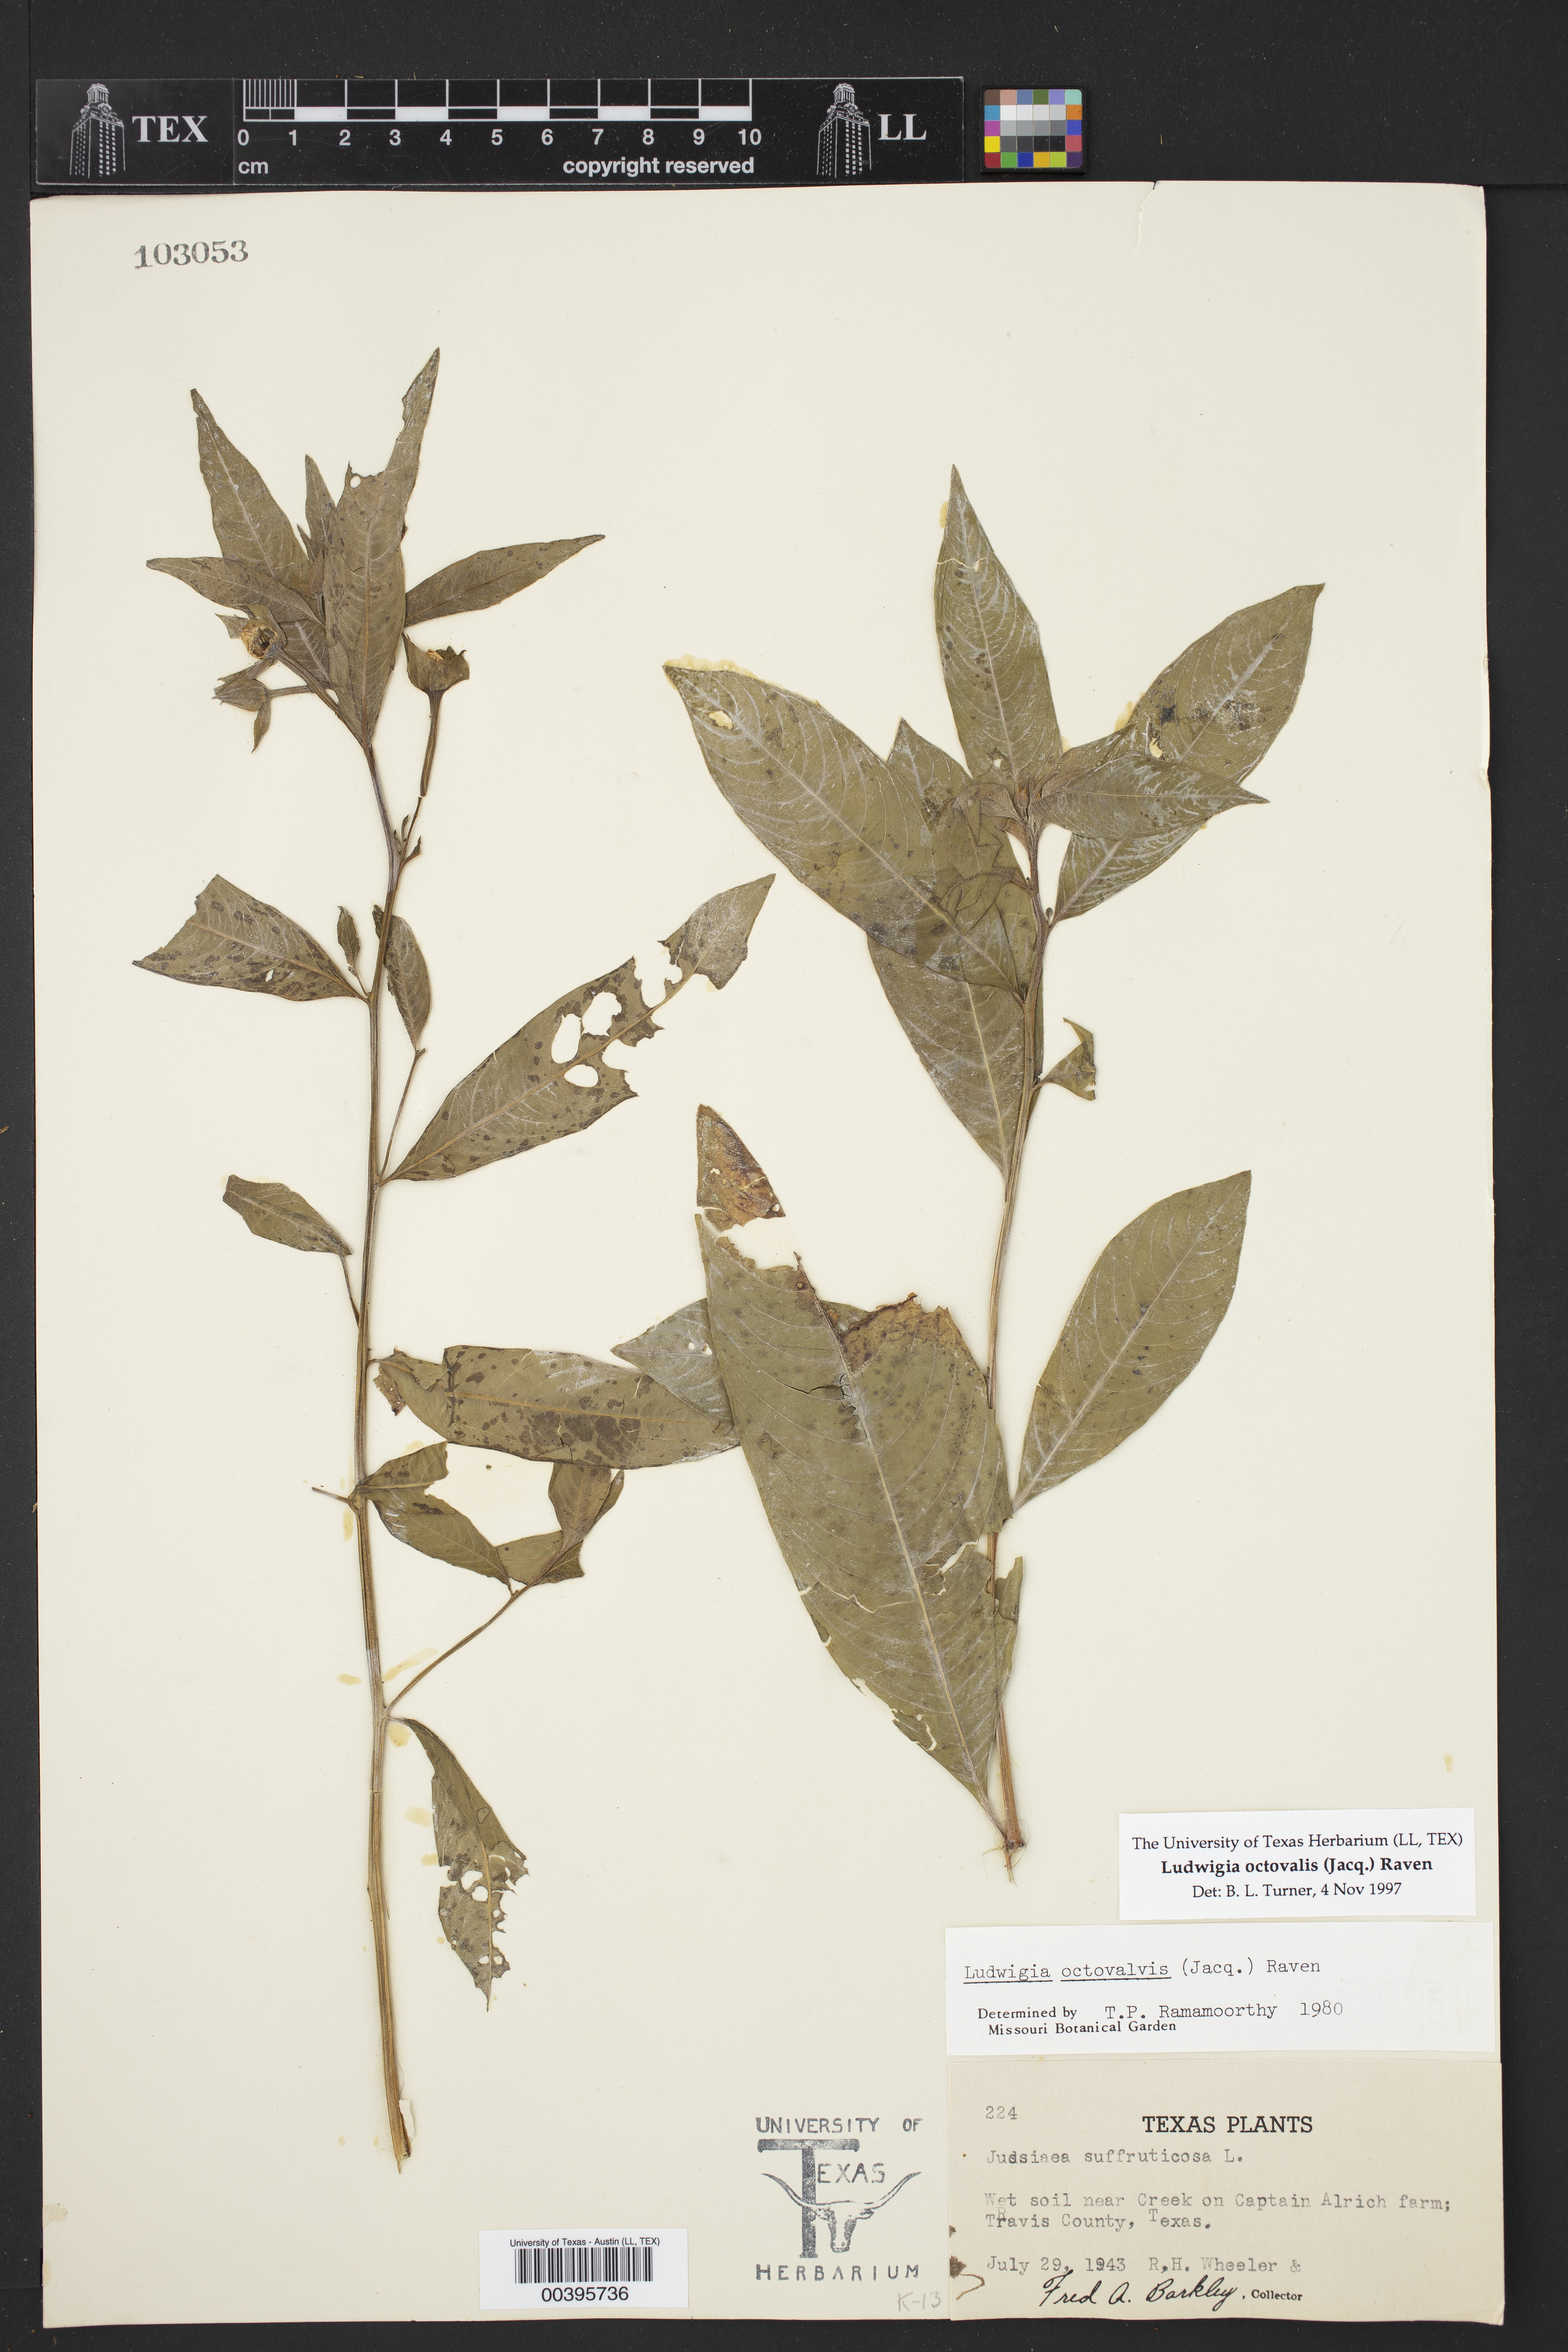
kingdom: Plantae
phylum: Tracheophyta
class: Magnoliopsida
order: Myrtales
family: Onagraceae
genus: Ludwigia
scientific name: Ludwigia octovalvis
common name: Water-primrose
